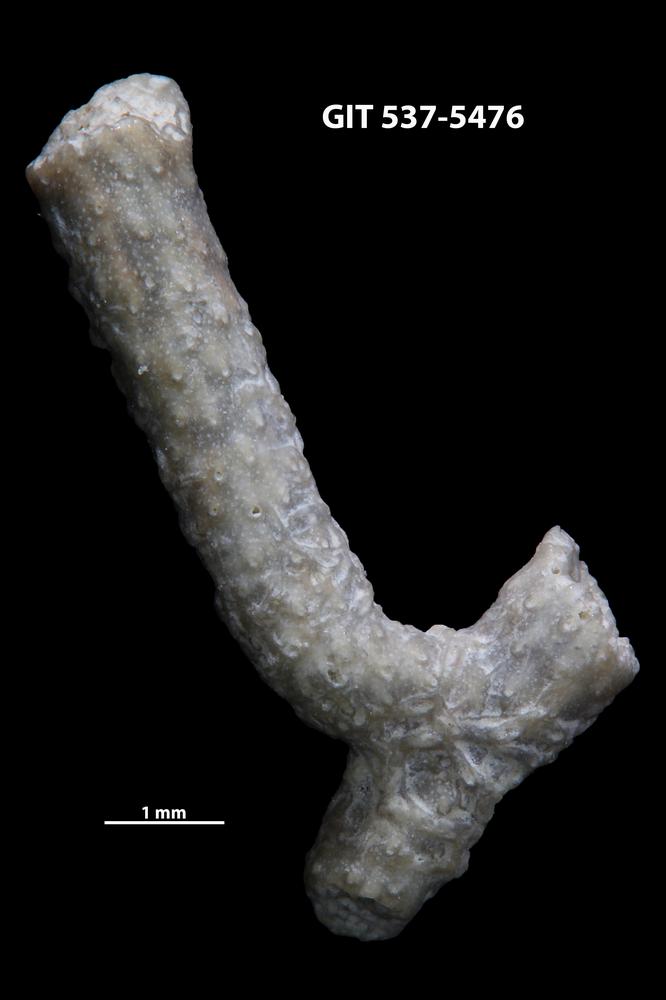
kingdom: Animalia
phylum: Bryozoa
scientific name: Bryozoa
